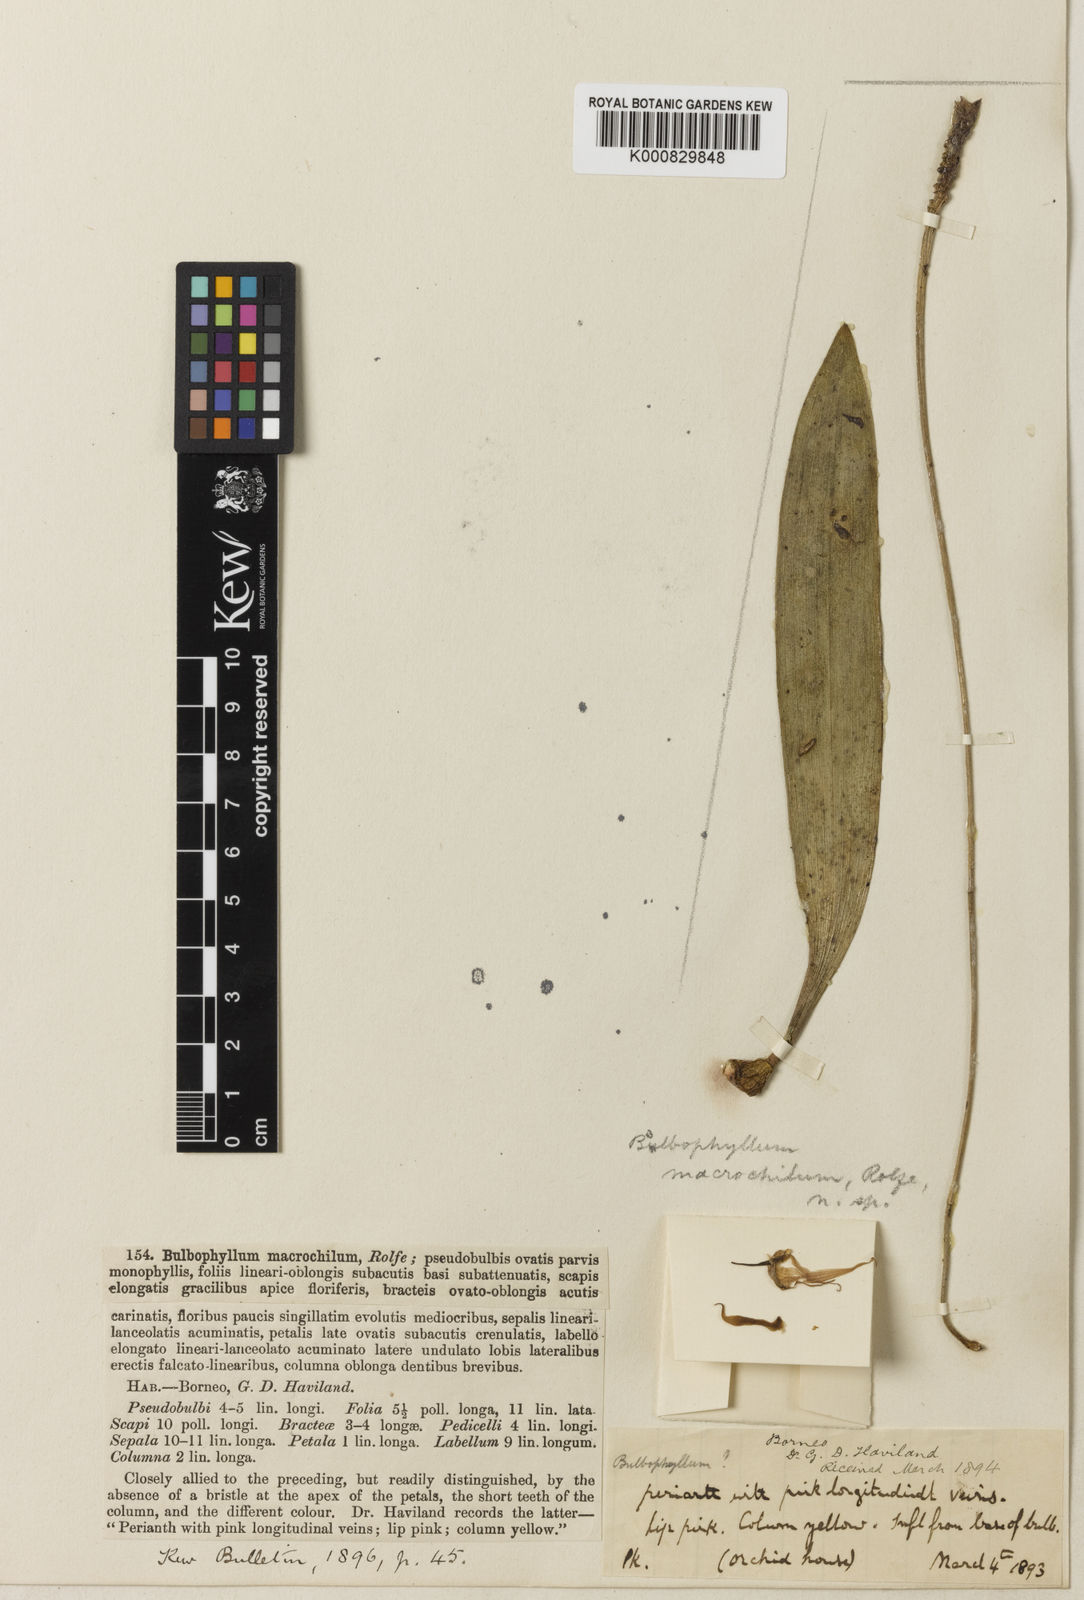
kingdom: Plantae
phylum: Tracheophyta
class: Liliopsida
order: Asparagales
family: Orchidaceae
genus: Bulbophyllum
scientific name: Bulbophyllum macrochilum
